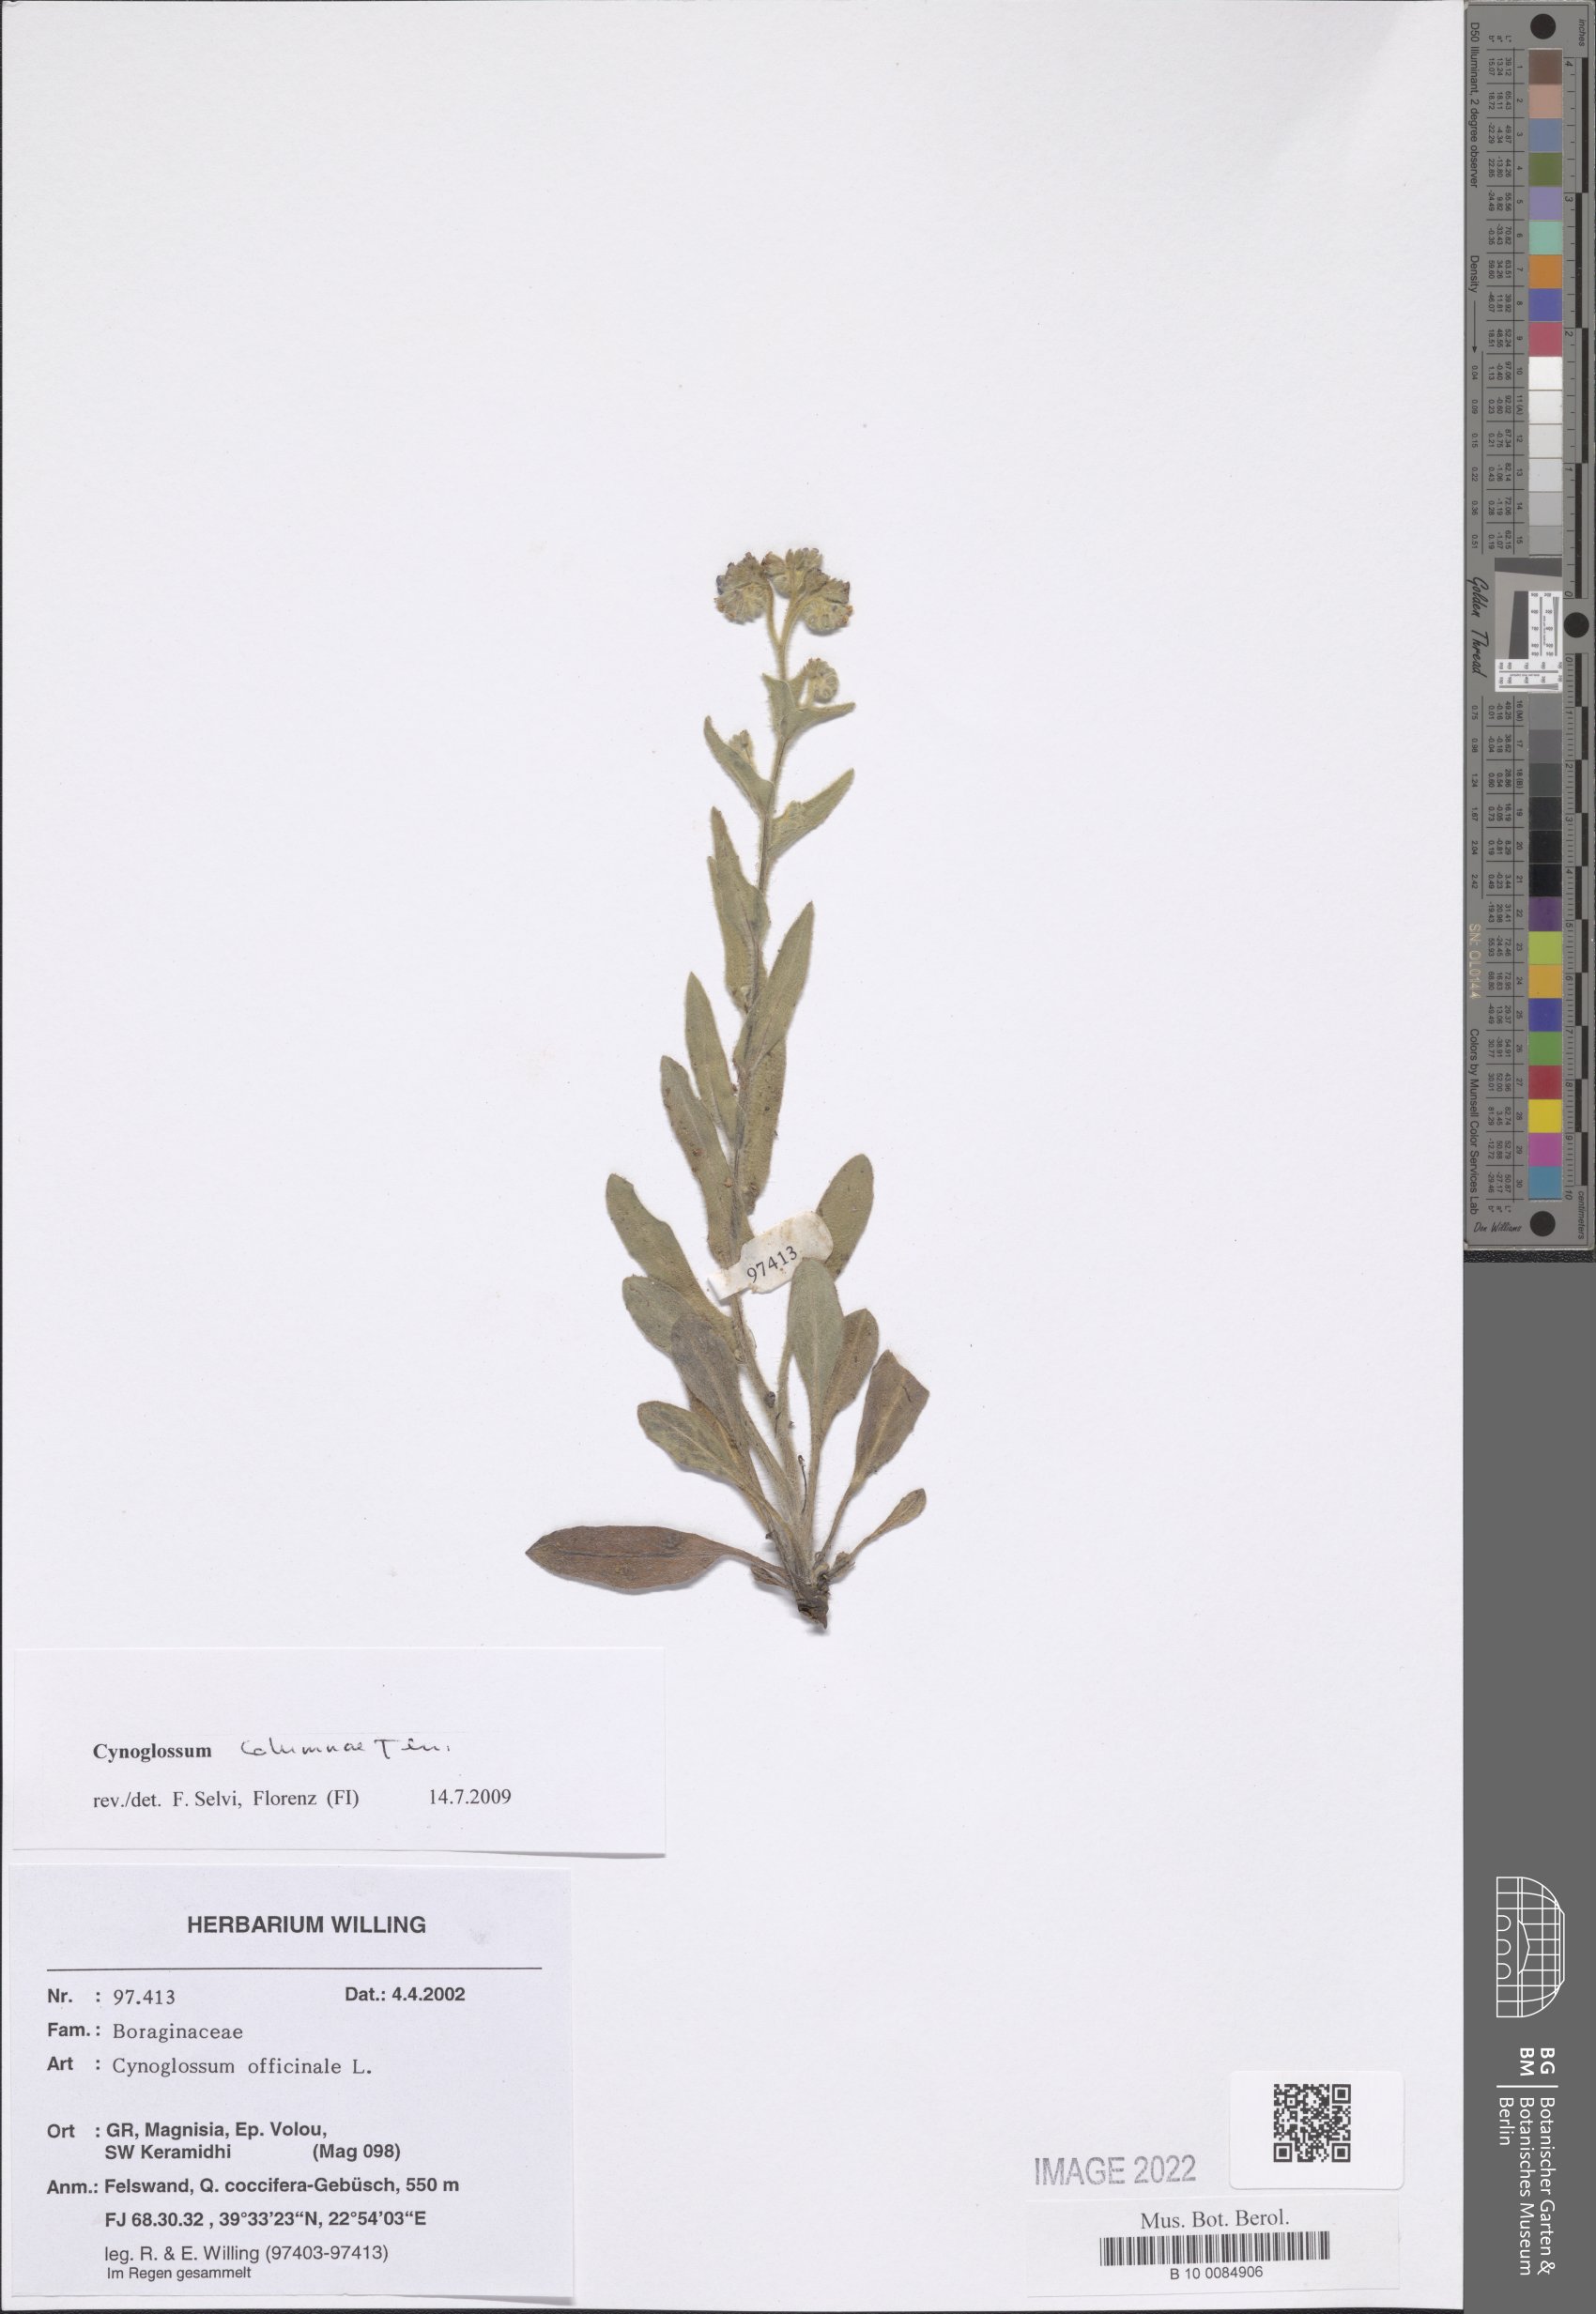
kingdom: Plantae
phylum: Tracheophyta
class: Magnoliopsida
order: Boraginales
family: Boraginaceae
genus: Rindera
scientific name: Rindera columnae
